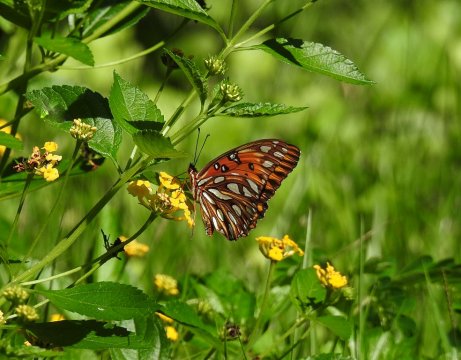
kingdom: Animalia
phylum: Arthropoda
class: Insecta
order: Lepidoptera
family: Nymphalidae
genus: Dione
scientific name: Dione vanillae
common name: Gulf Fritillary
